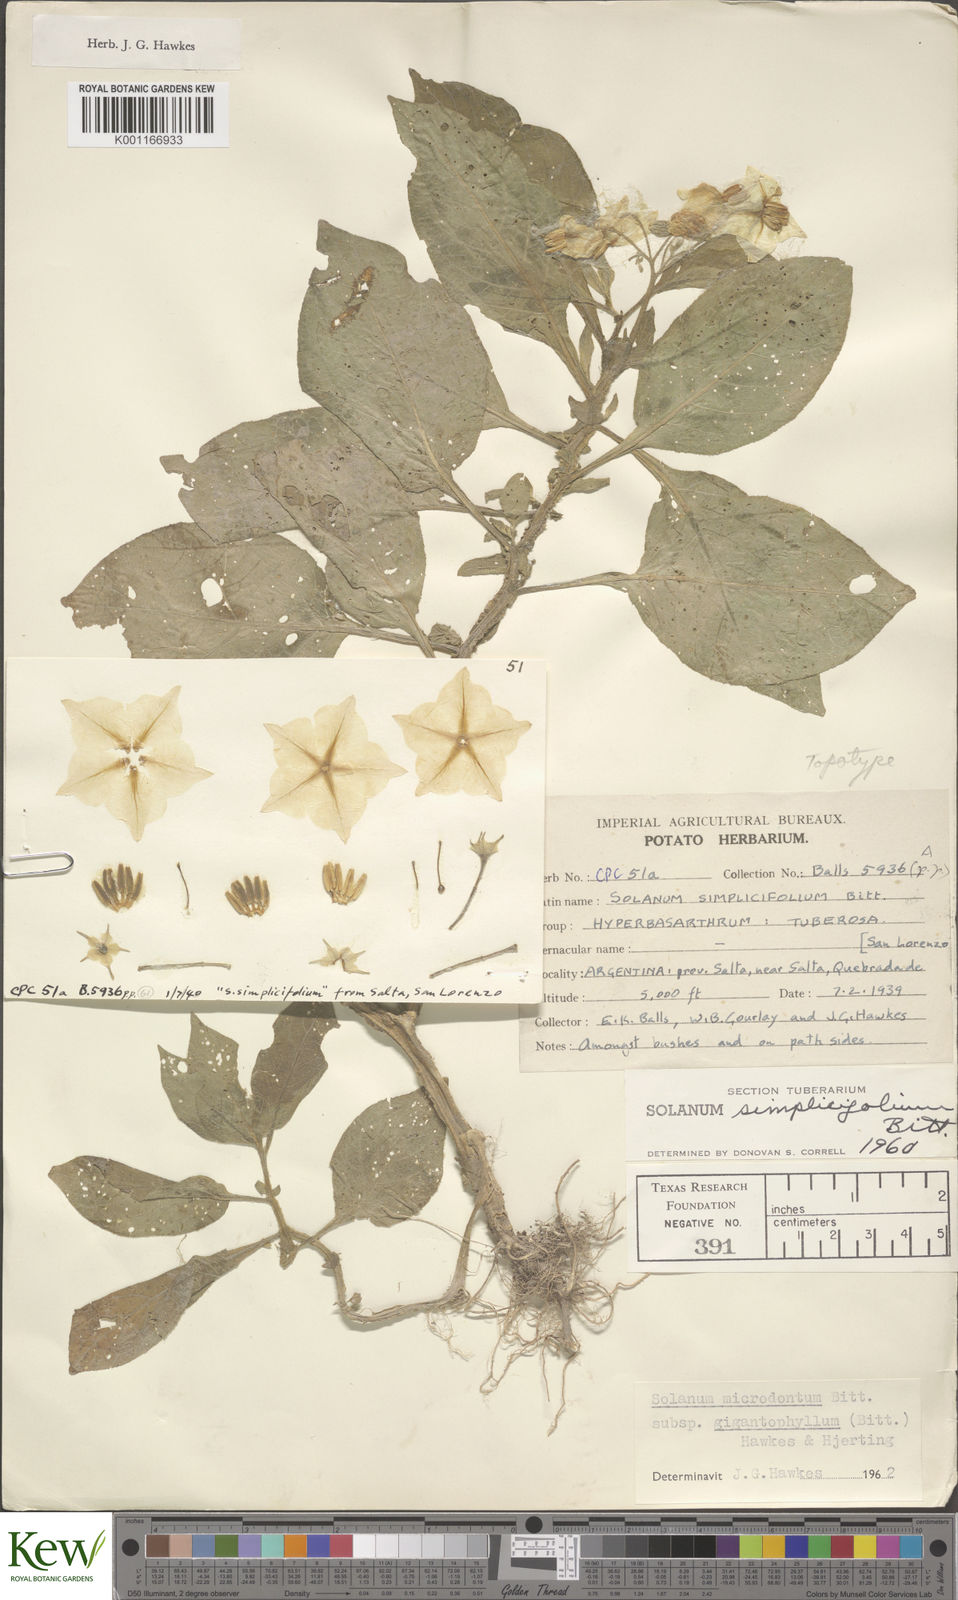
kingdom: Plantae
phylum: Tracheophyta
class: Magnoliopsida
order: Solanales
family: Solanaceae
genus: Solanum
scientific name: Solanum microdontum
